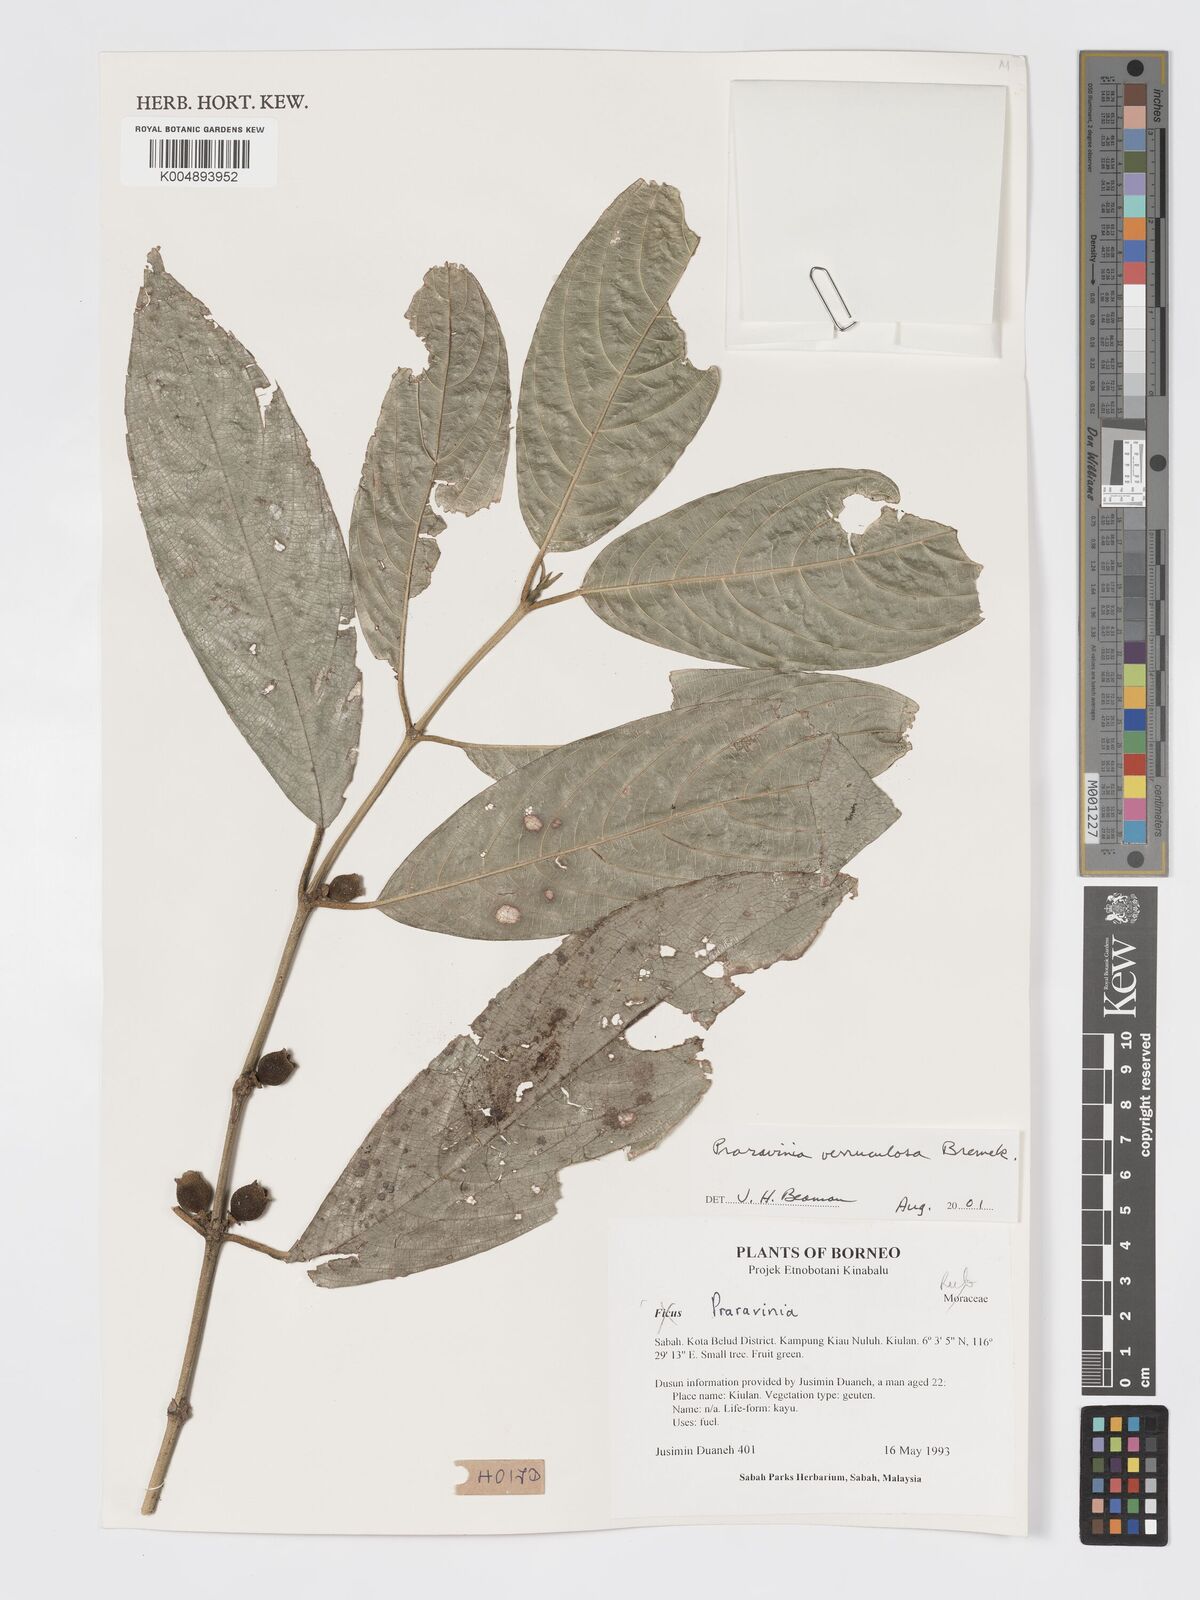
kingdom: Plantae
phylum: Tracheophyta
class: Magnoliopsida
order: Gentianales
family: Rubiaceae
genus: Praravinia
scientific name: Praravinia verruculosa
